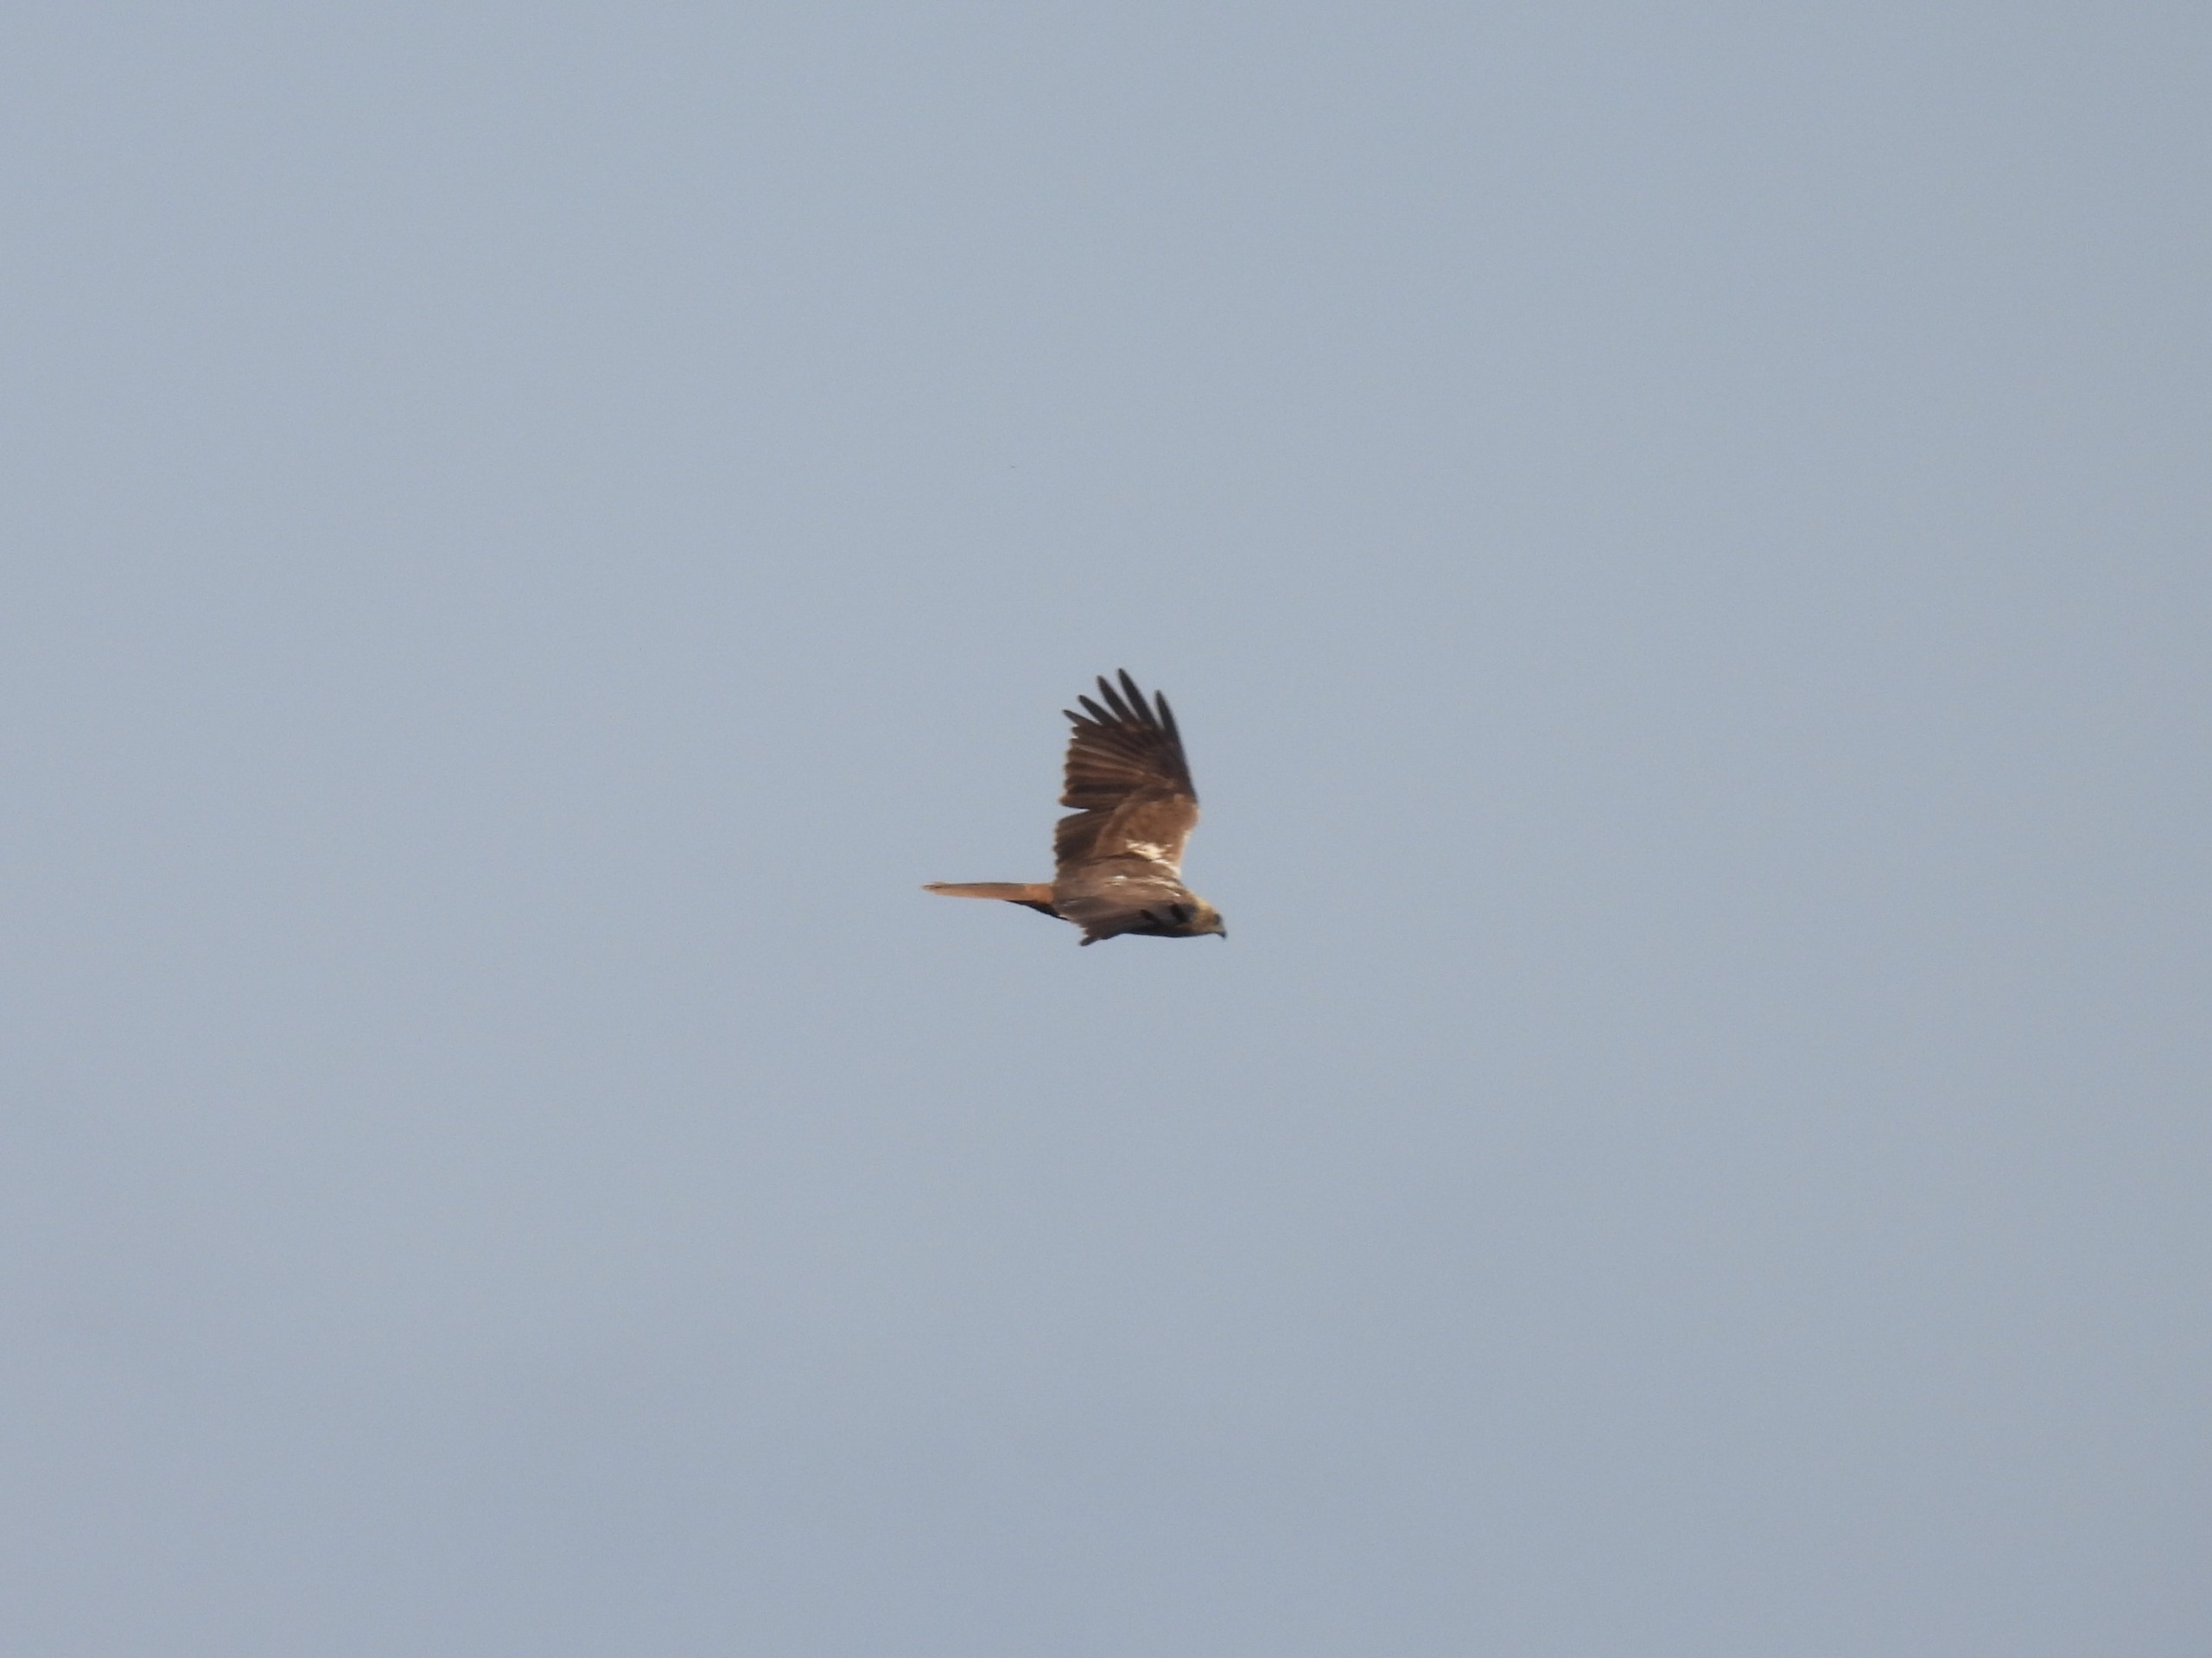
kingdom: Animalia
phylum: Chordata
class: Aves
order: Accipitriformes
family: Accipitridae
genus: Circus
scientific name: Circus aeruginosus
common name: Rørhøg
